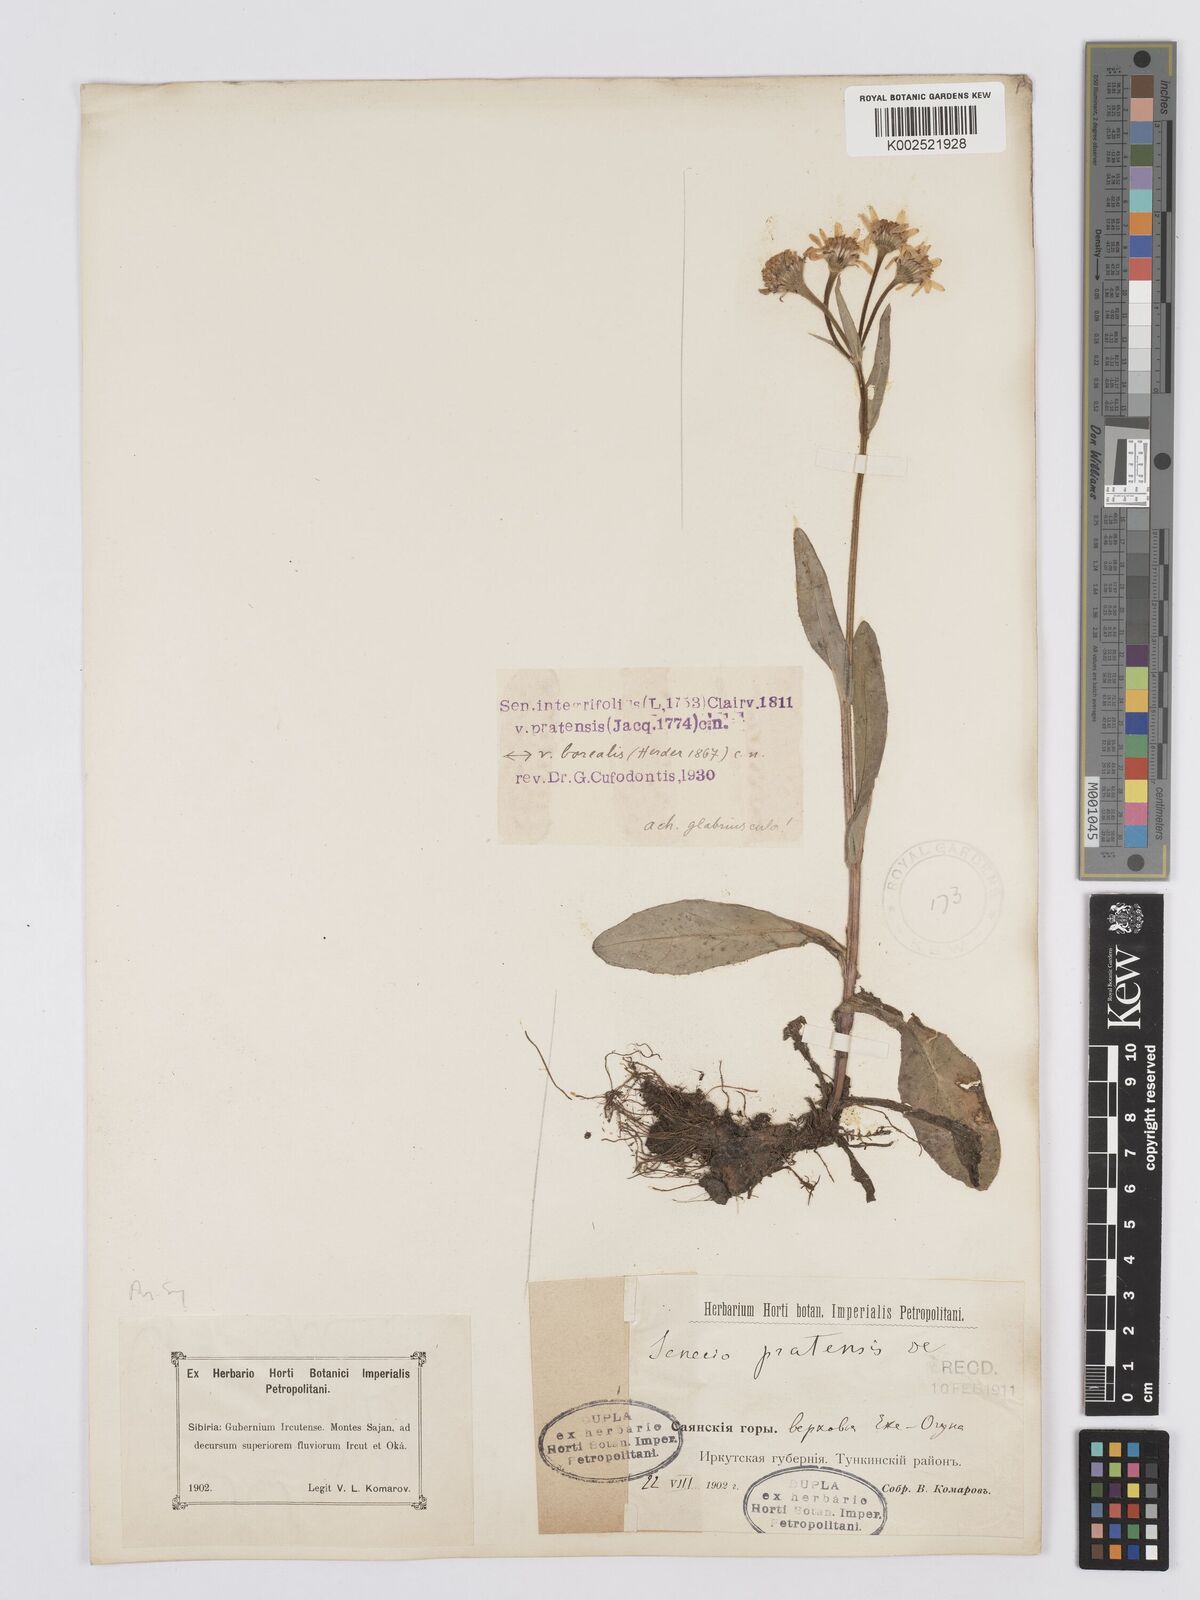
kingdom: Plantae
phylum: Tracheophyta
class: Magnoliopsida
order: Asterales
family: Asteraceae
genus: Tephroseris
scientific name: Tephroseris integrifolia
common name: Field fleawort
